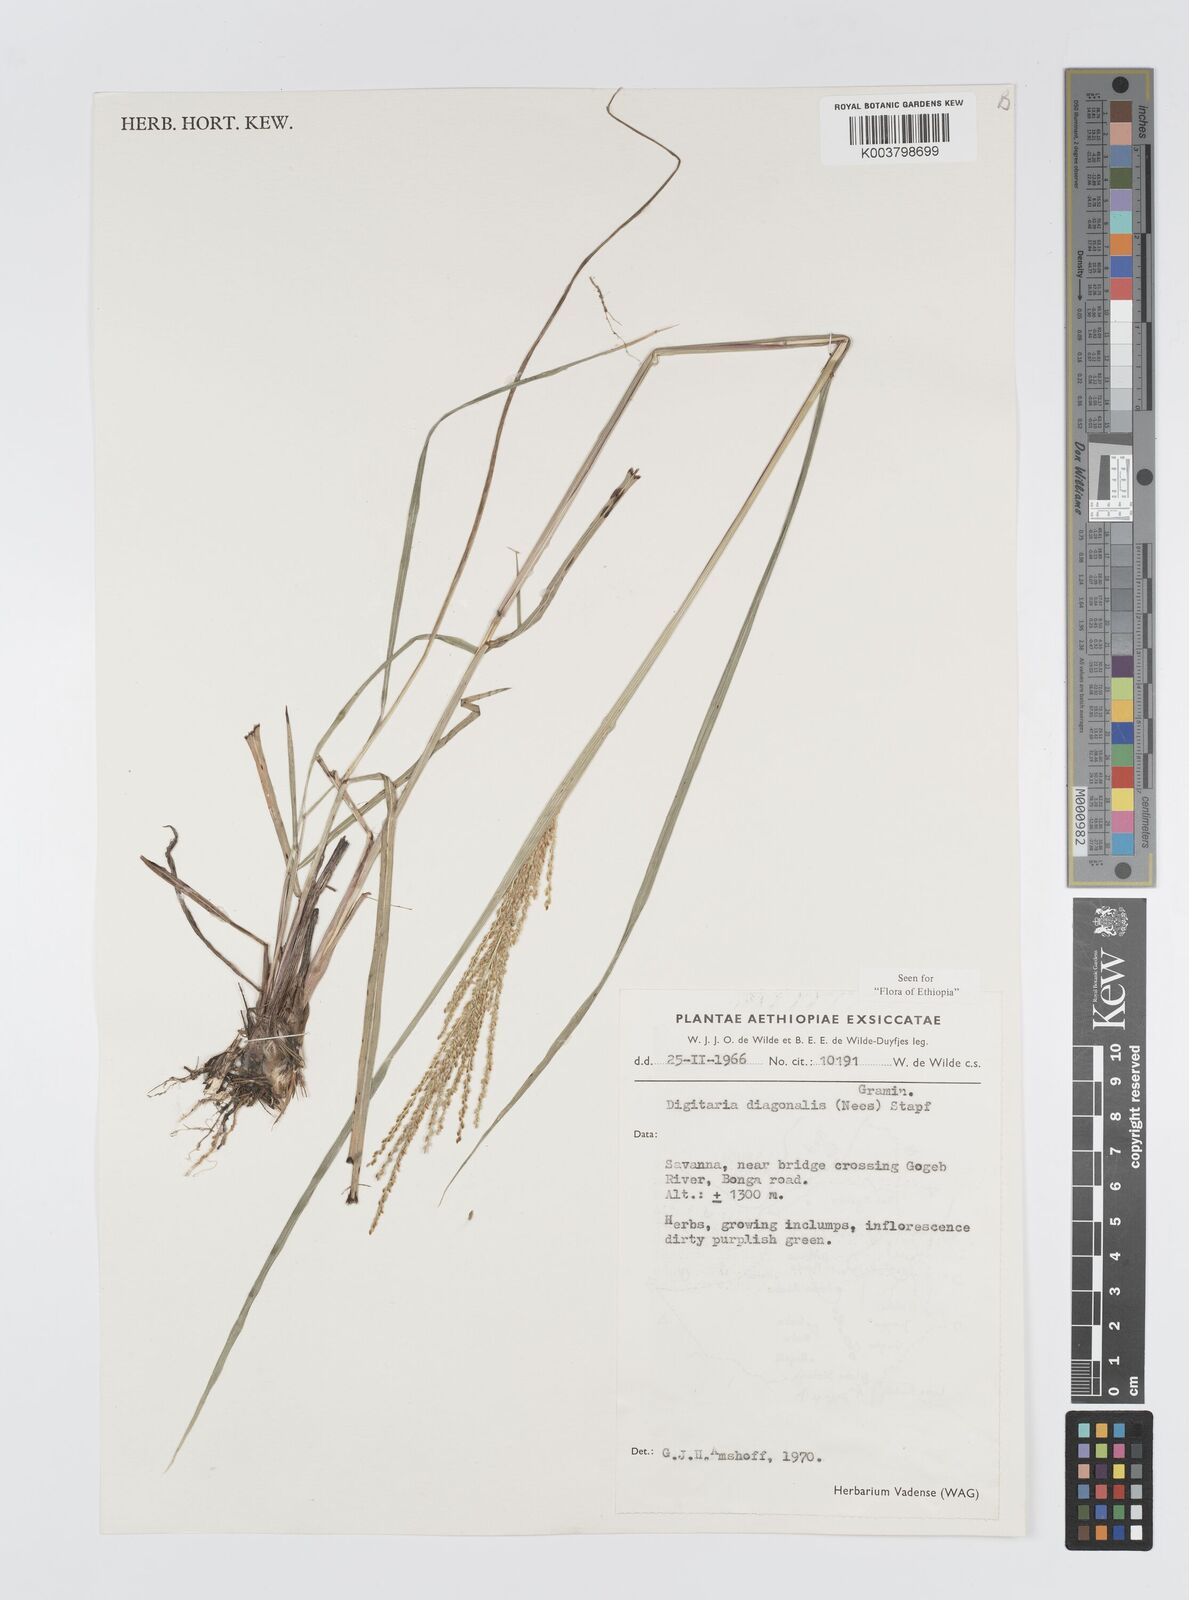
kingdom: Plantae
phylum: Tracheophyta
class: Liliopsida
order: Poales
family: Poaceae
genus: Digitaria
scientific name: Digitaria diagonalis
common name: Brown-seed finger grass
